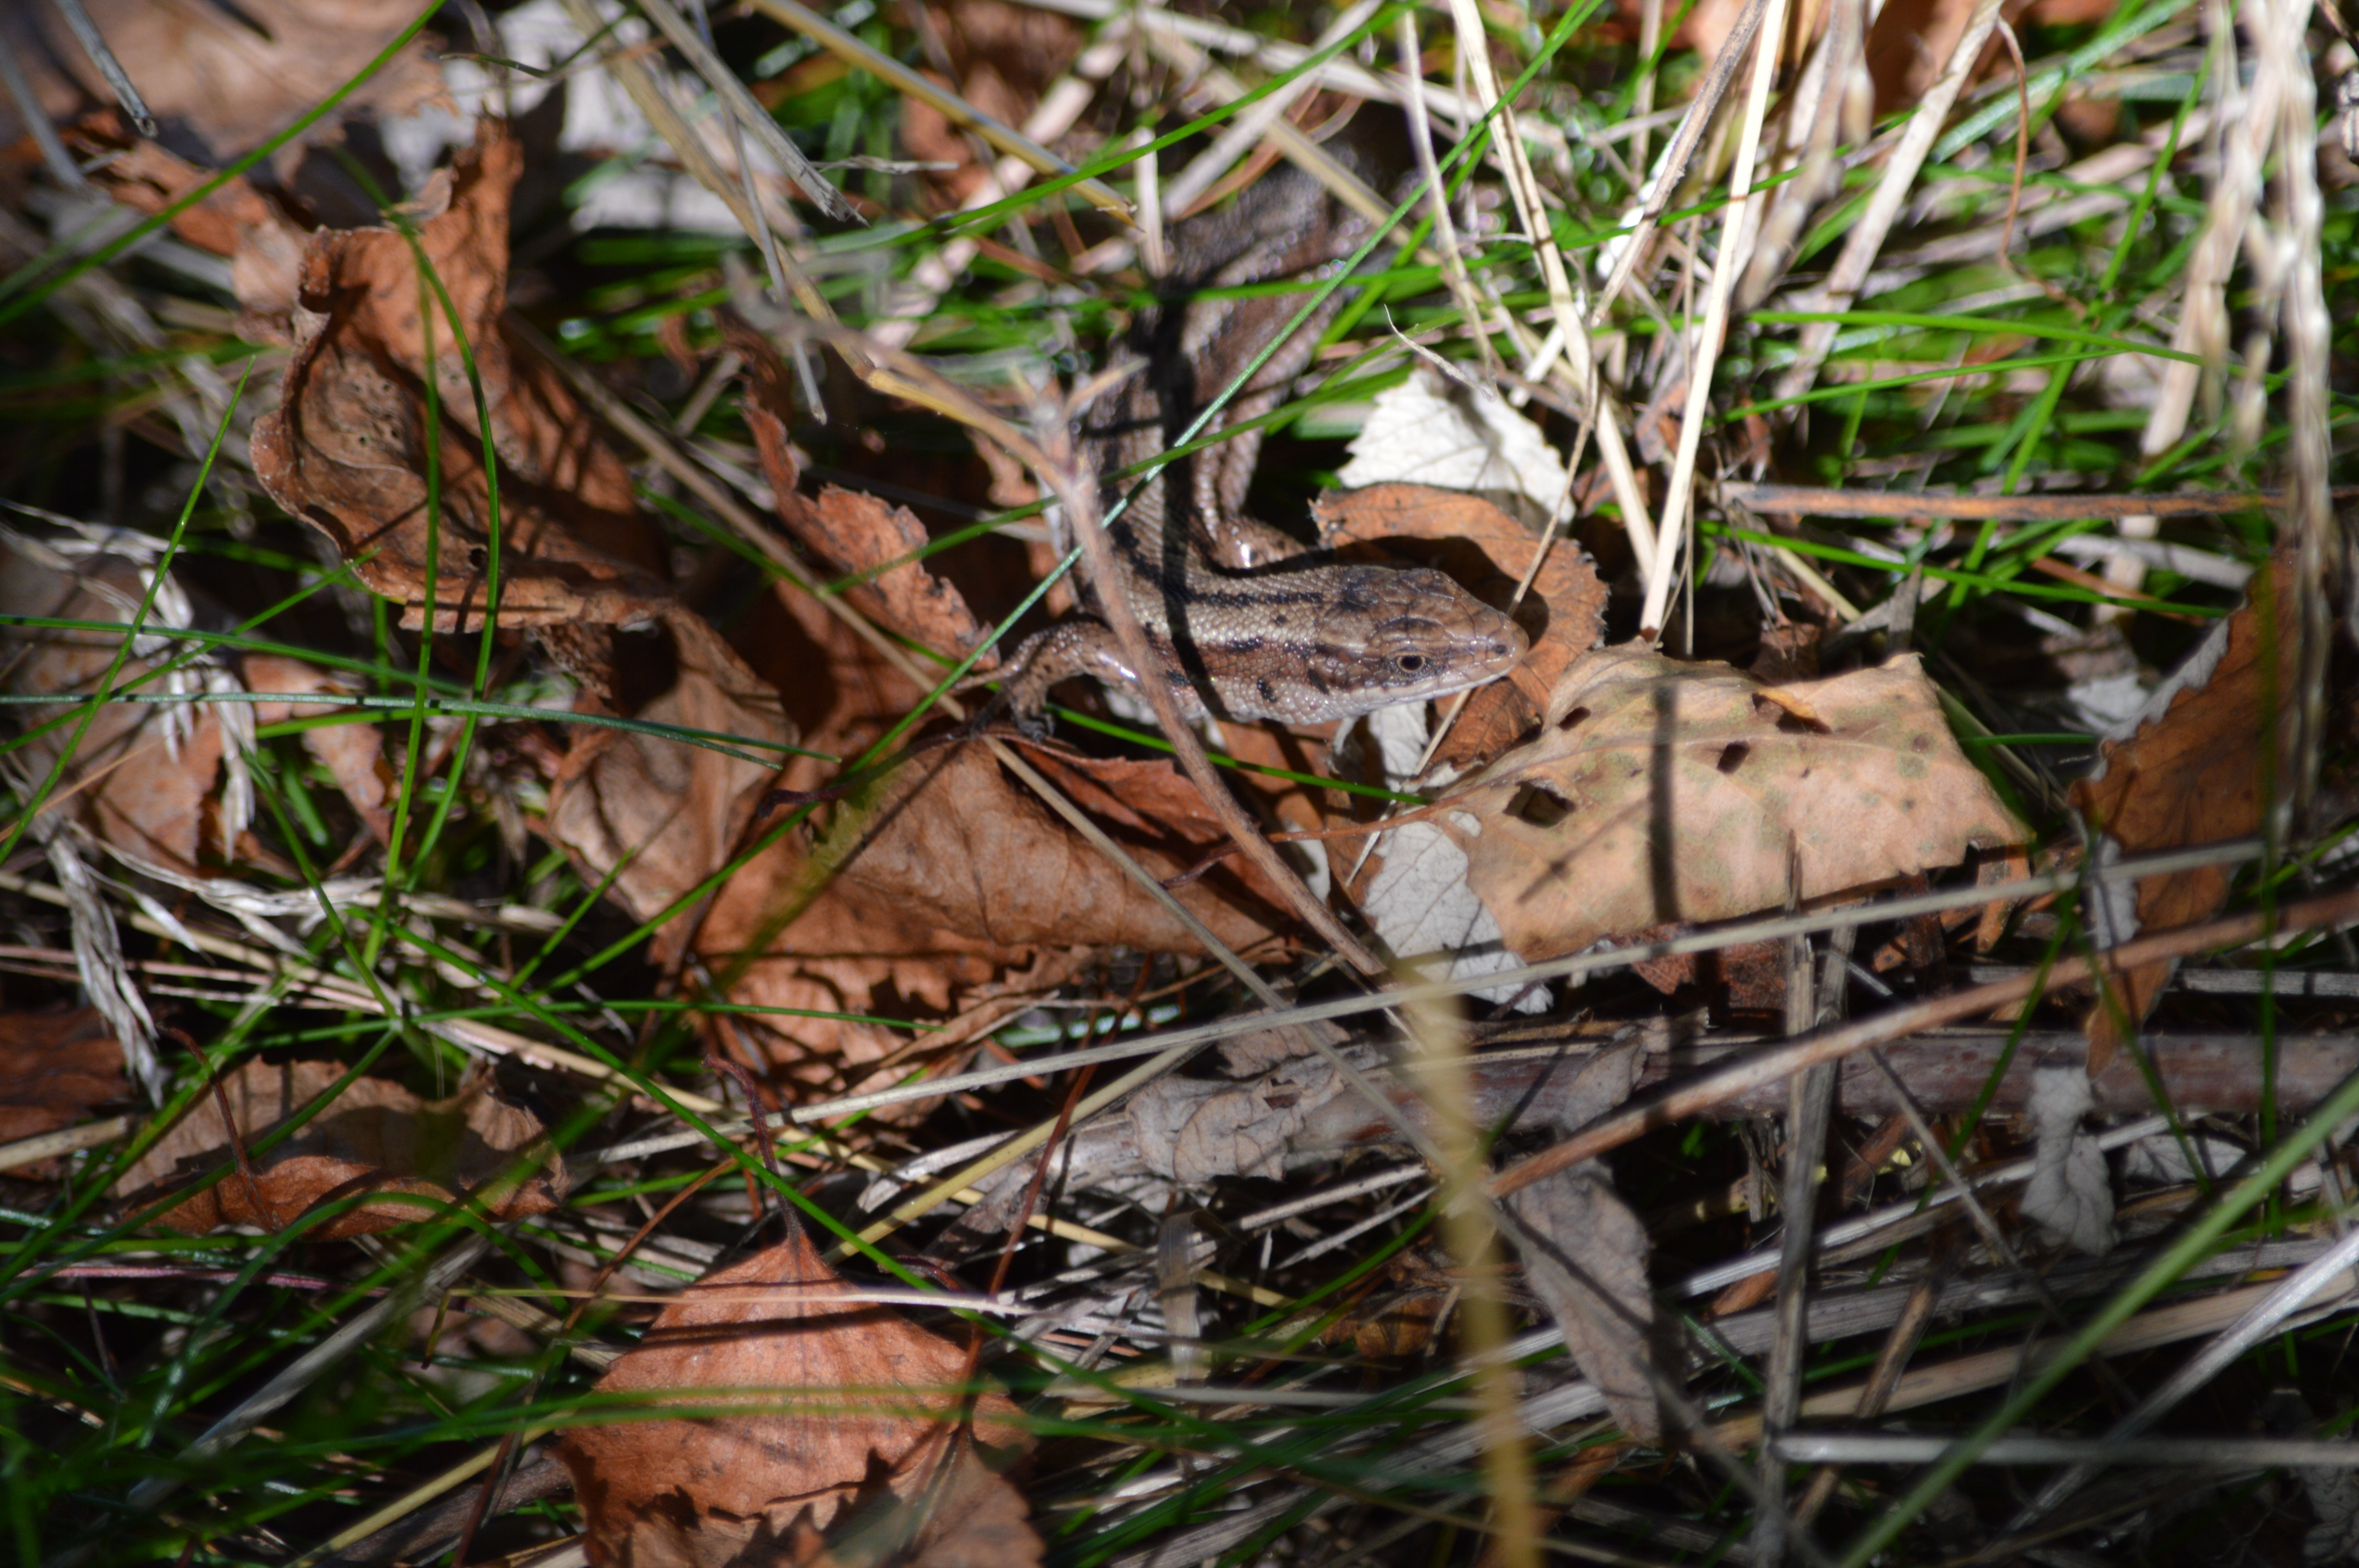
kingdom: Animalia
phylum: Chordata
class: Squamata
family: Lacertidae
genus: Zootoca
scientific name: Zootoca vivipara
